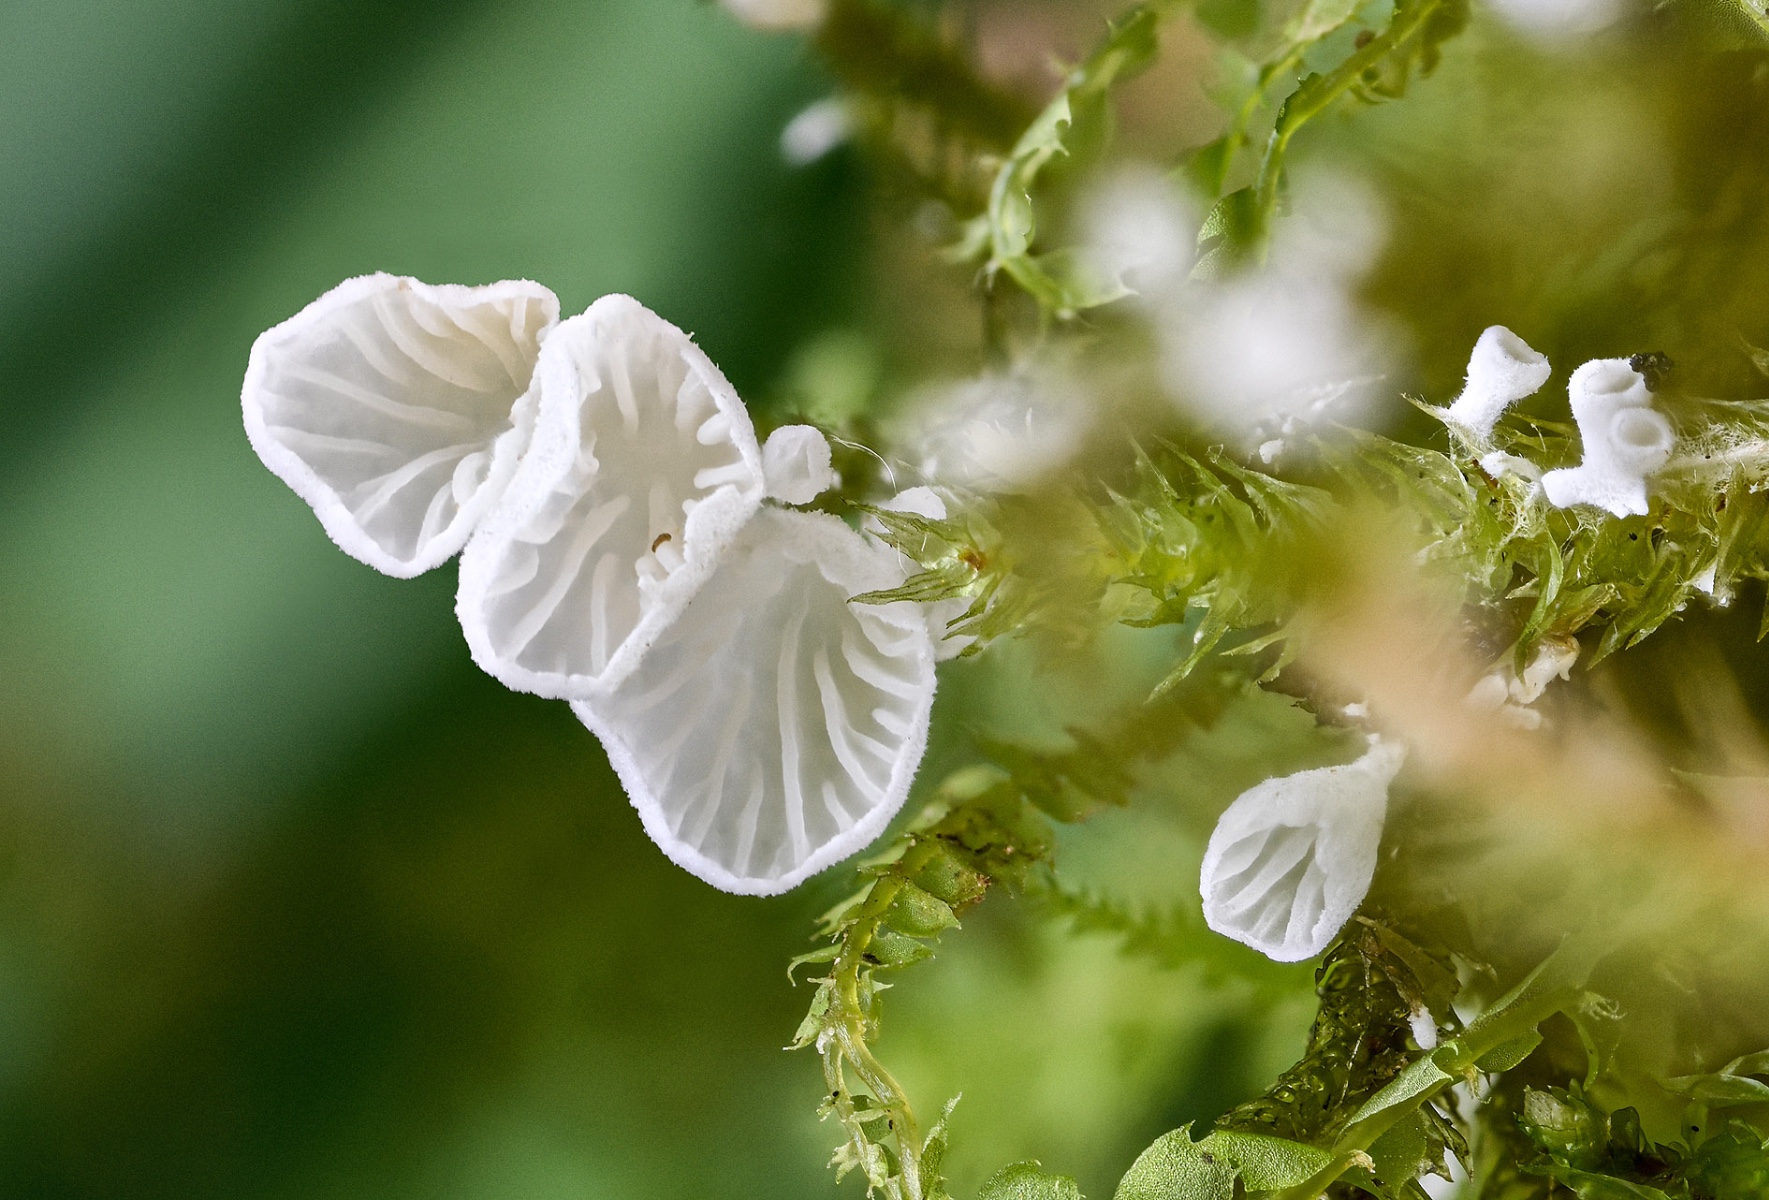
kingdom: Fungi
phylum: Basidiomycota
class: Agaricomycetes
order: Agaricales
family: Tricholomataceae
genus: Rimbachia
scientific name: Rimbachia bryophila
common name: året mosskål
